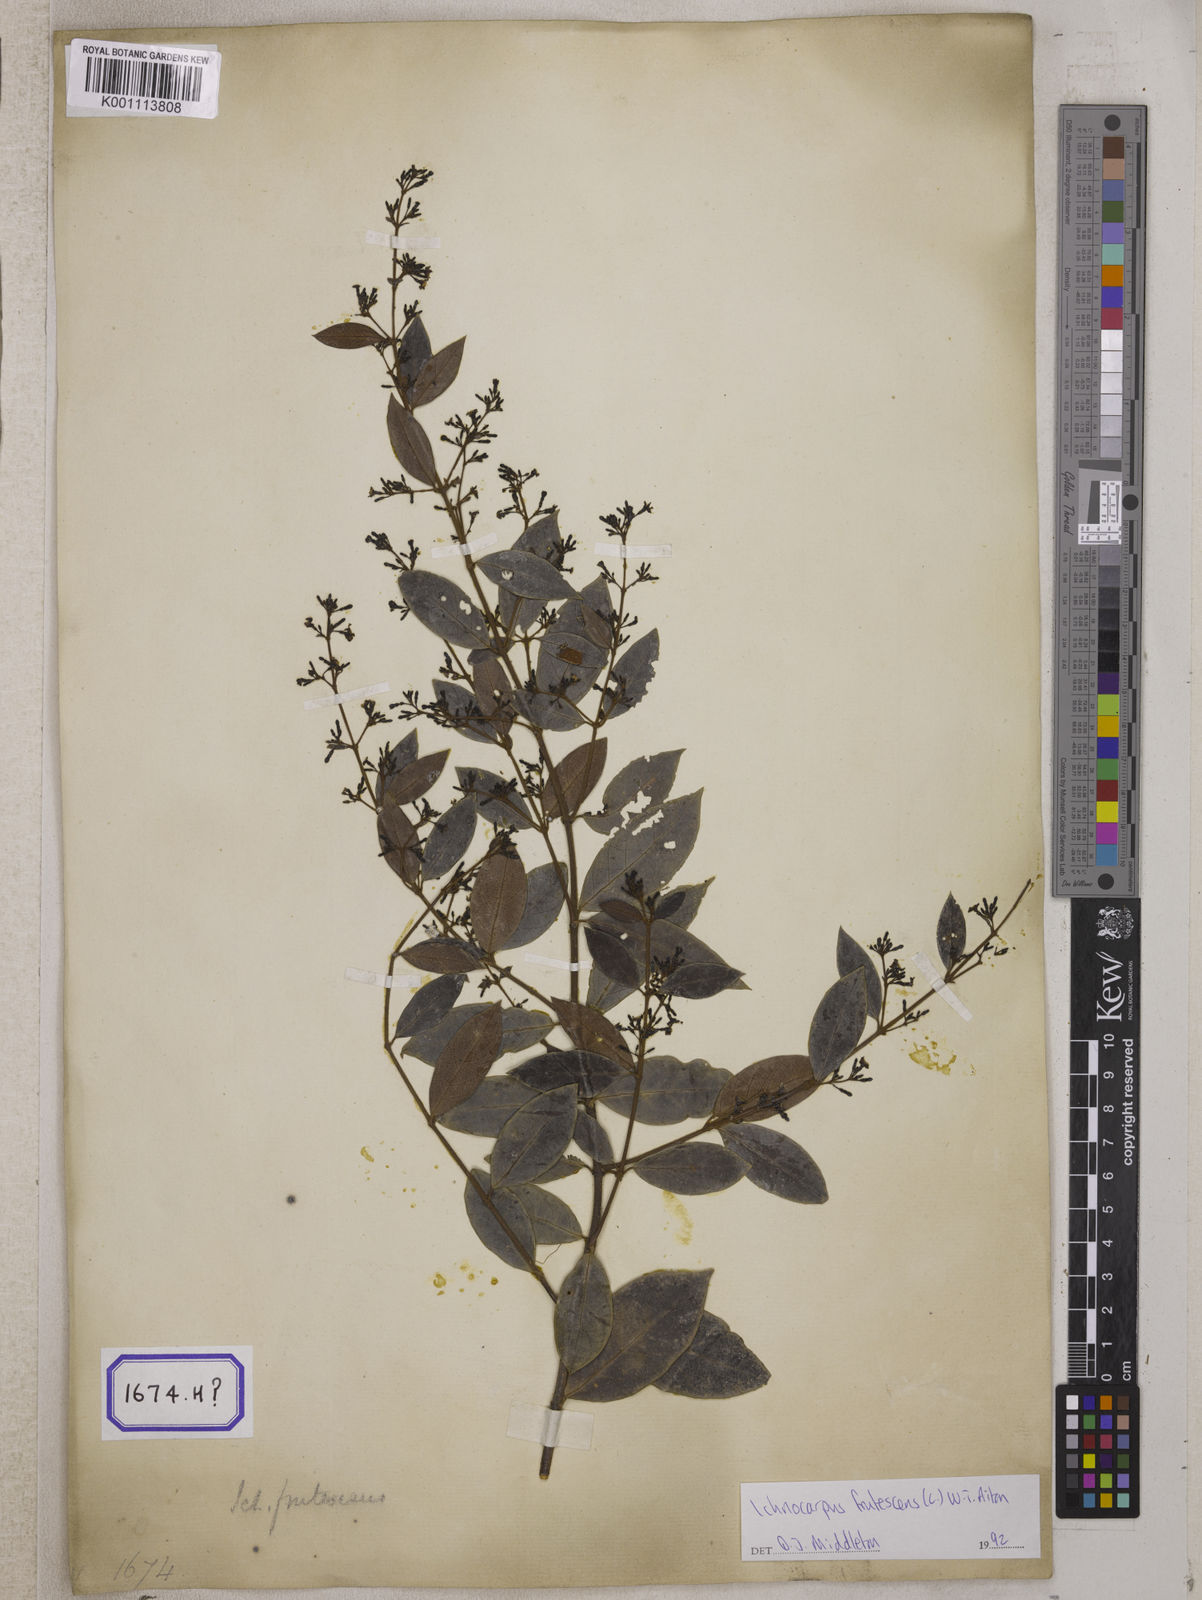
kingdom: Plantae
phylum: Tracheophyta
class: Magnoliopsida
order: Gentianales
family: Apocynaceae
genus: Ichnocarpus
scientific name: Ichnocarpus
